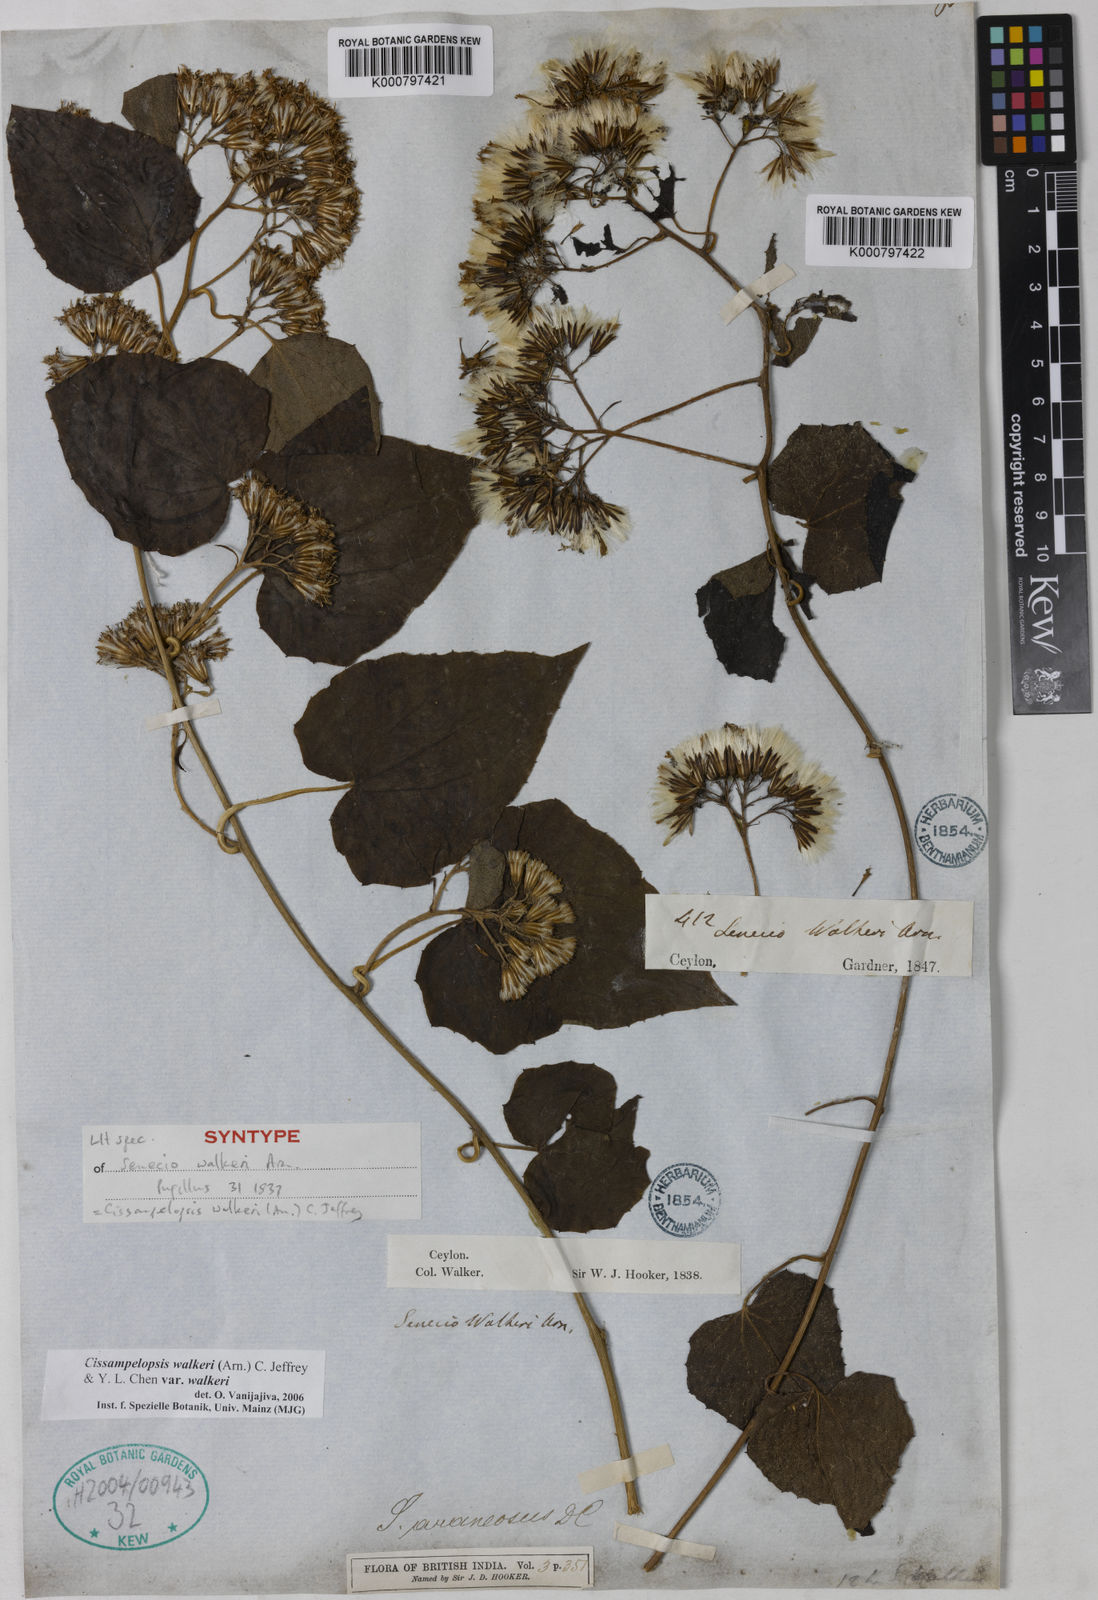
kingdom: Plantae
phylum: Tracheophyta
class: Magnoliopsida
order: Asterales
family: Asteraceae
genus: Cissampelopsis
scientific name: Cissampelopsis walkeri
